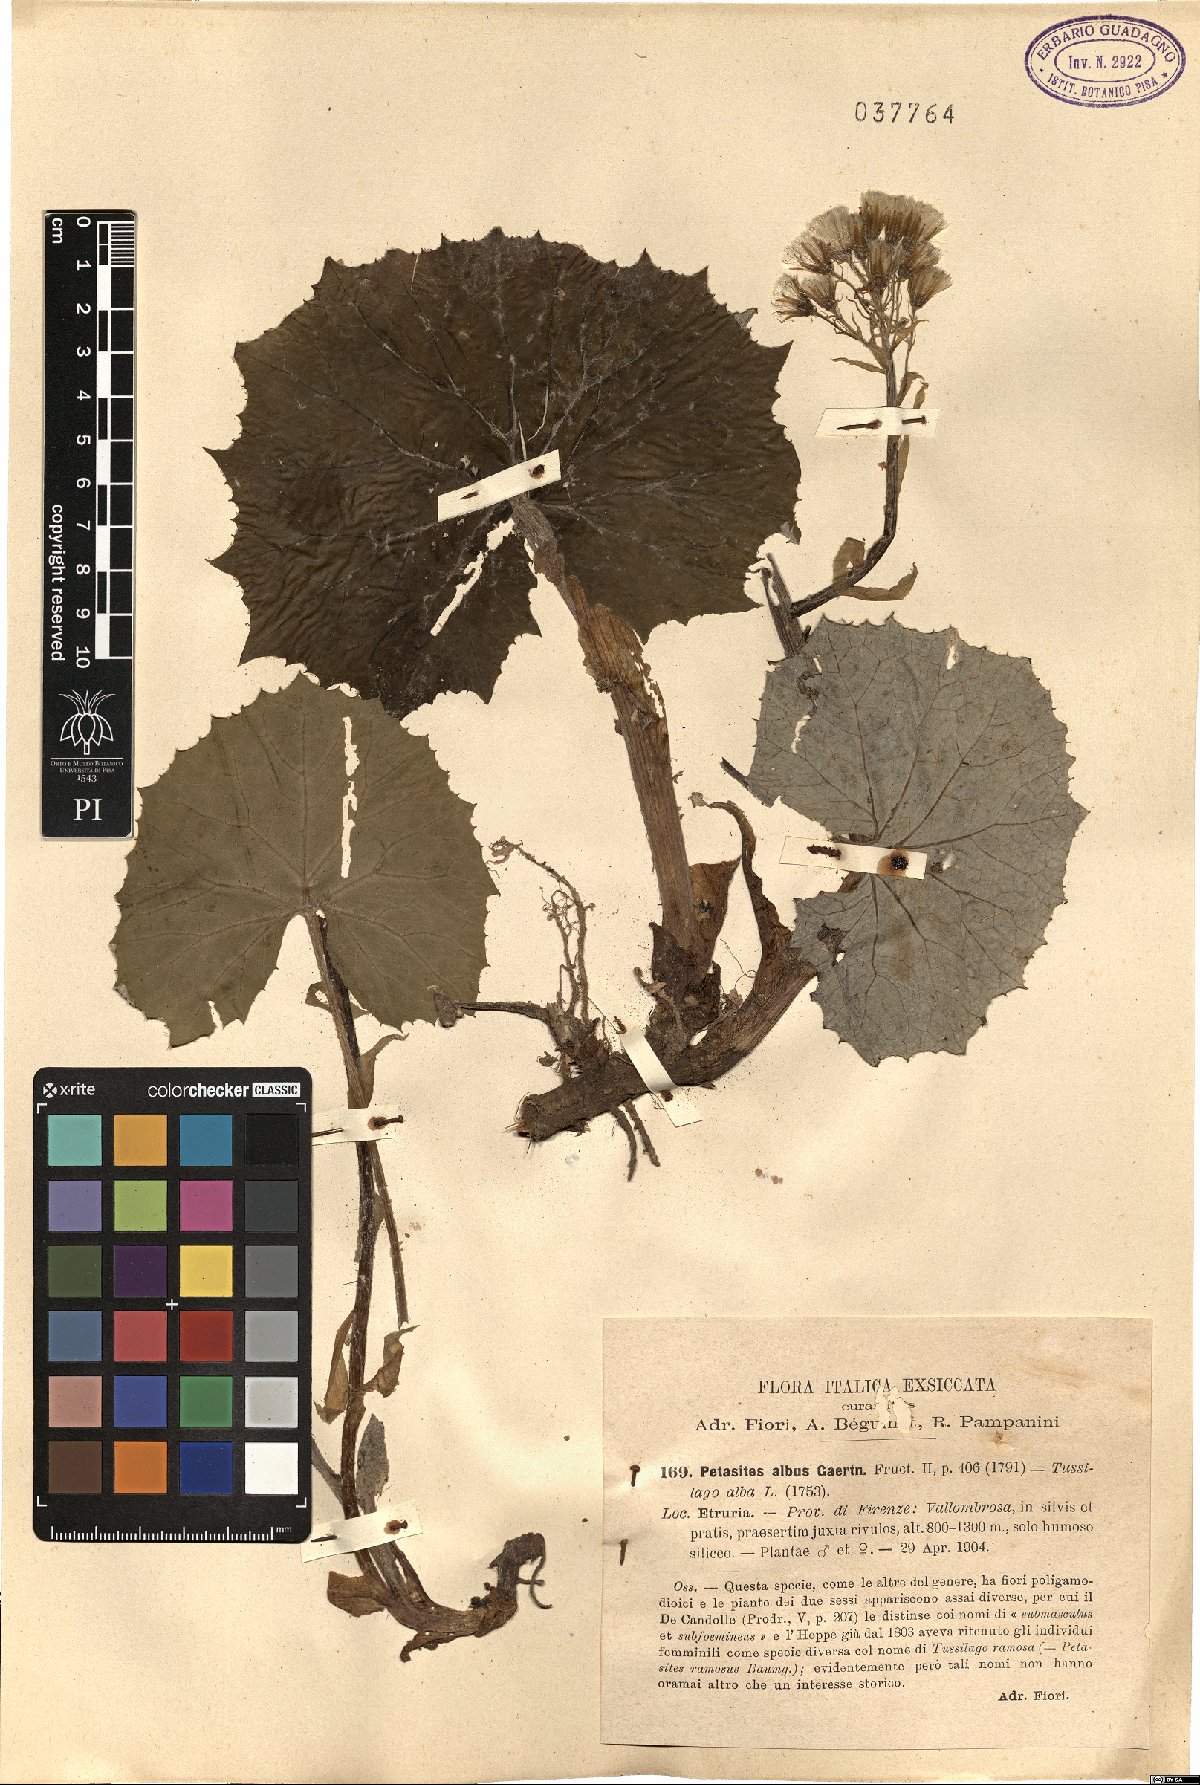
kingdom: Plantae
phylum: Tracheophyta
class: Magnoliopsida
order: Asterales
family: Asteraceae
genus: Petasites
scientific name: Petasites albus
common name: White butterbur
